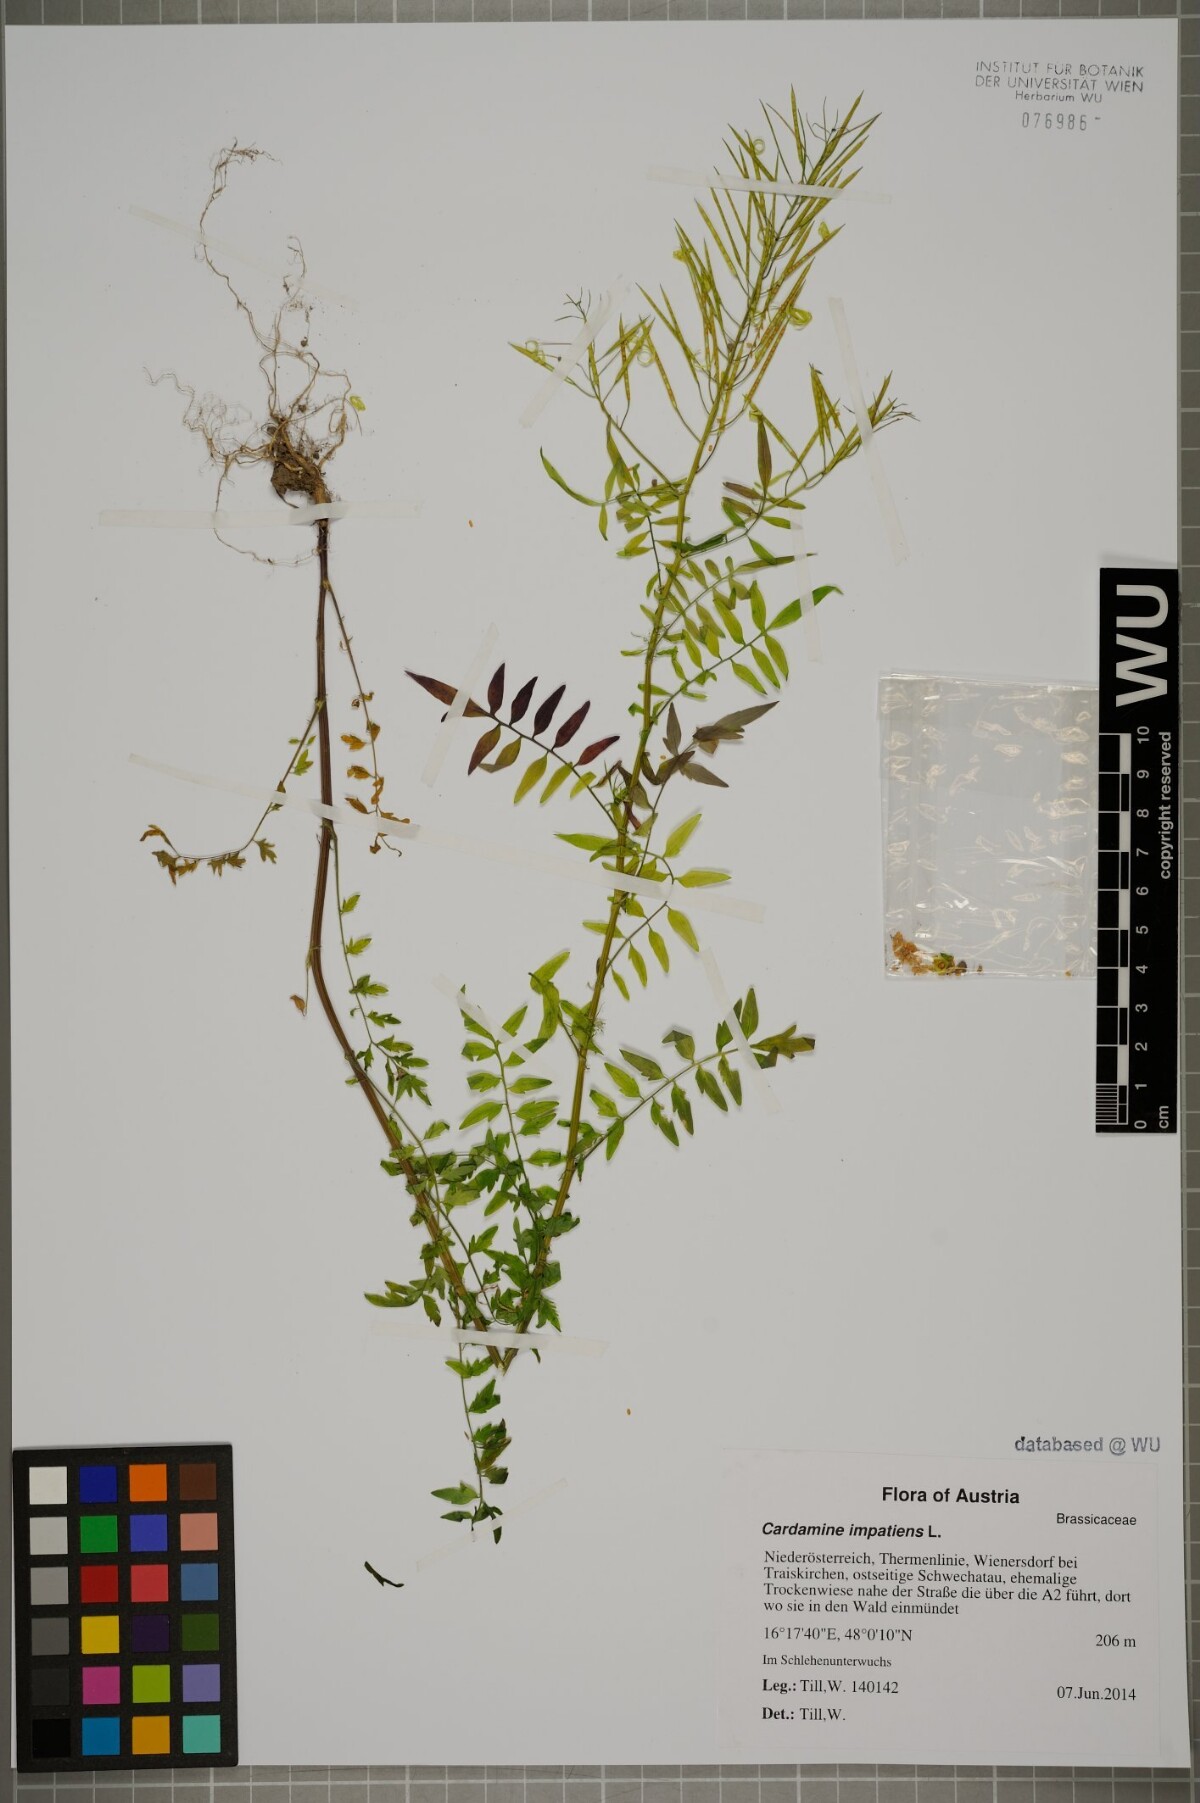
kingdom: Plantae
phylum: Tracheophyta
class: Magnoliopsida
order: Brassicales
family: Brassicaceae
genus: Cardamine
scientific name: Cardamine impatiens
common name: Narrow-leaved bitter-cress
